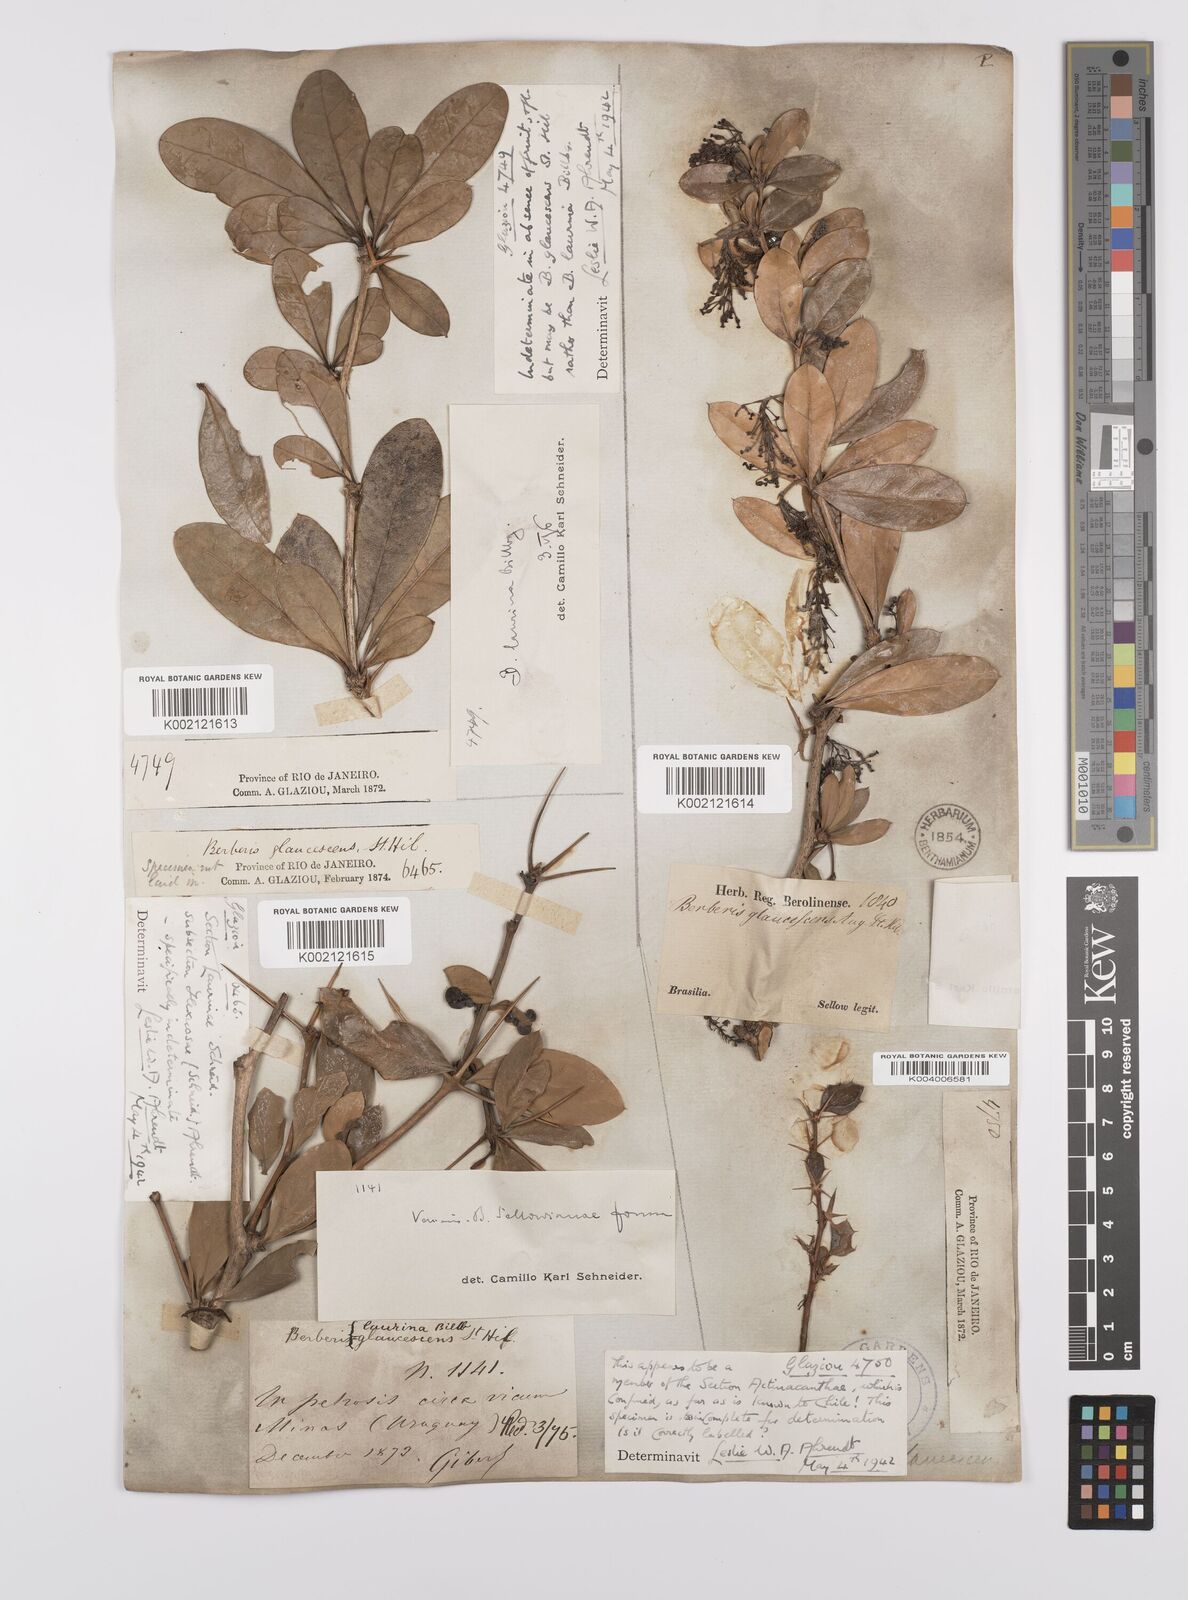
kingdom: Plantae
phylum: Tracheophyta
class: Magnoliopsida
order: Ranunculales
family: Berberidaceae
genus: Berberis
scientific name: Berberis laurina
